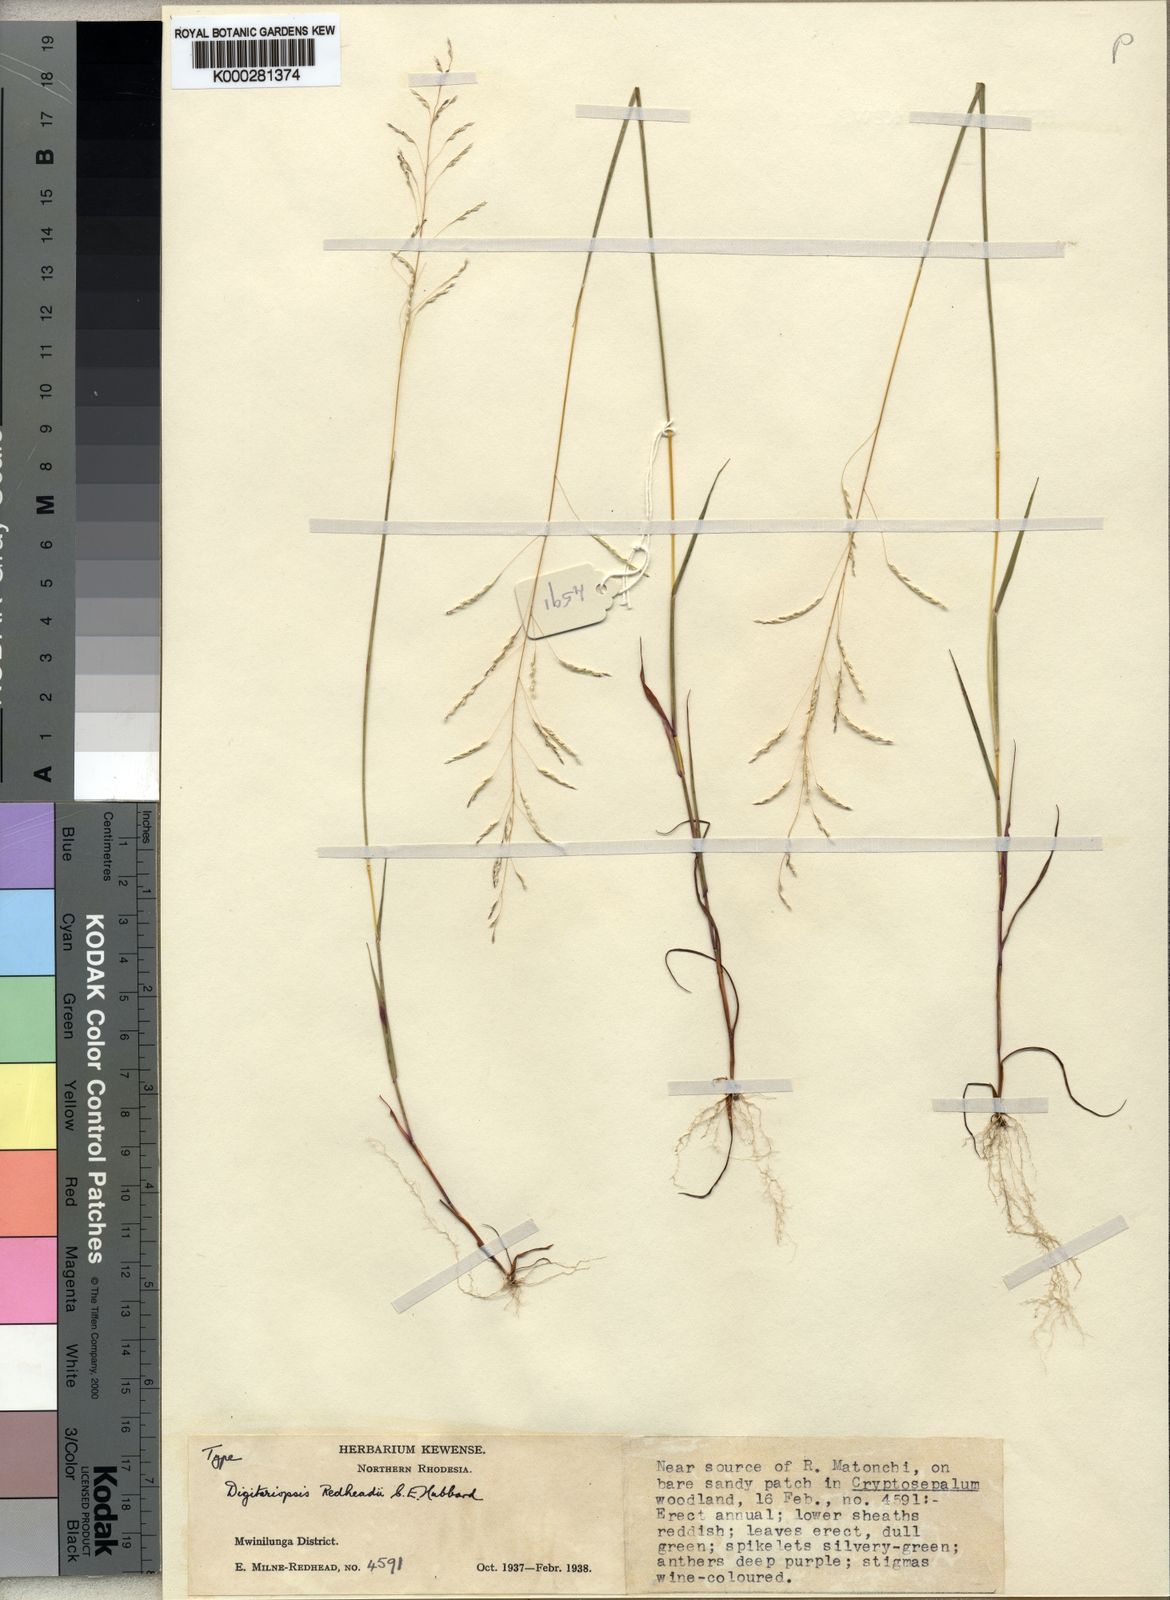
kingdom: Plantae
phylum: Tracheophyta
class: Liliopsida
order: Poales
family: Poaceae
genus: Digitaria
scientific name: Digitaria redheadii
